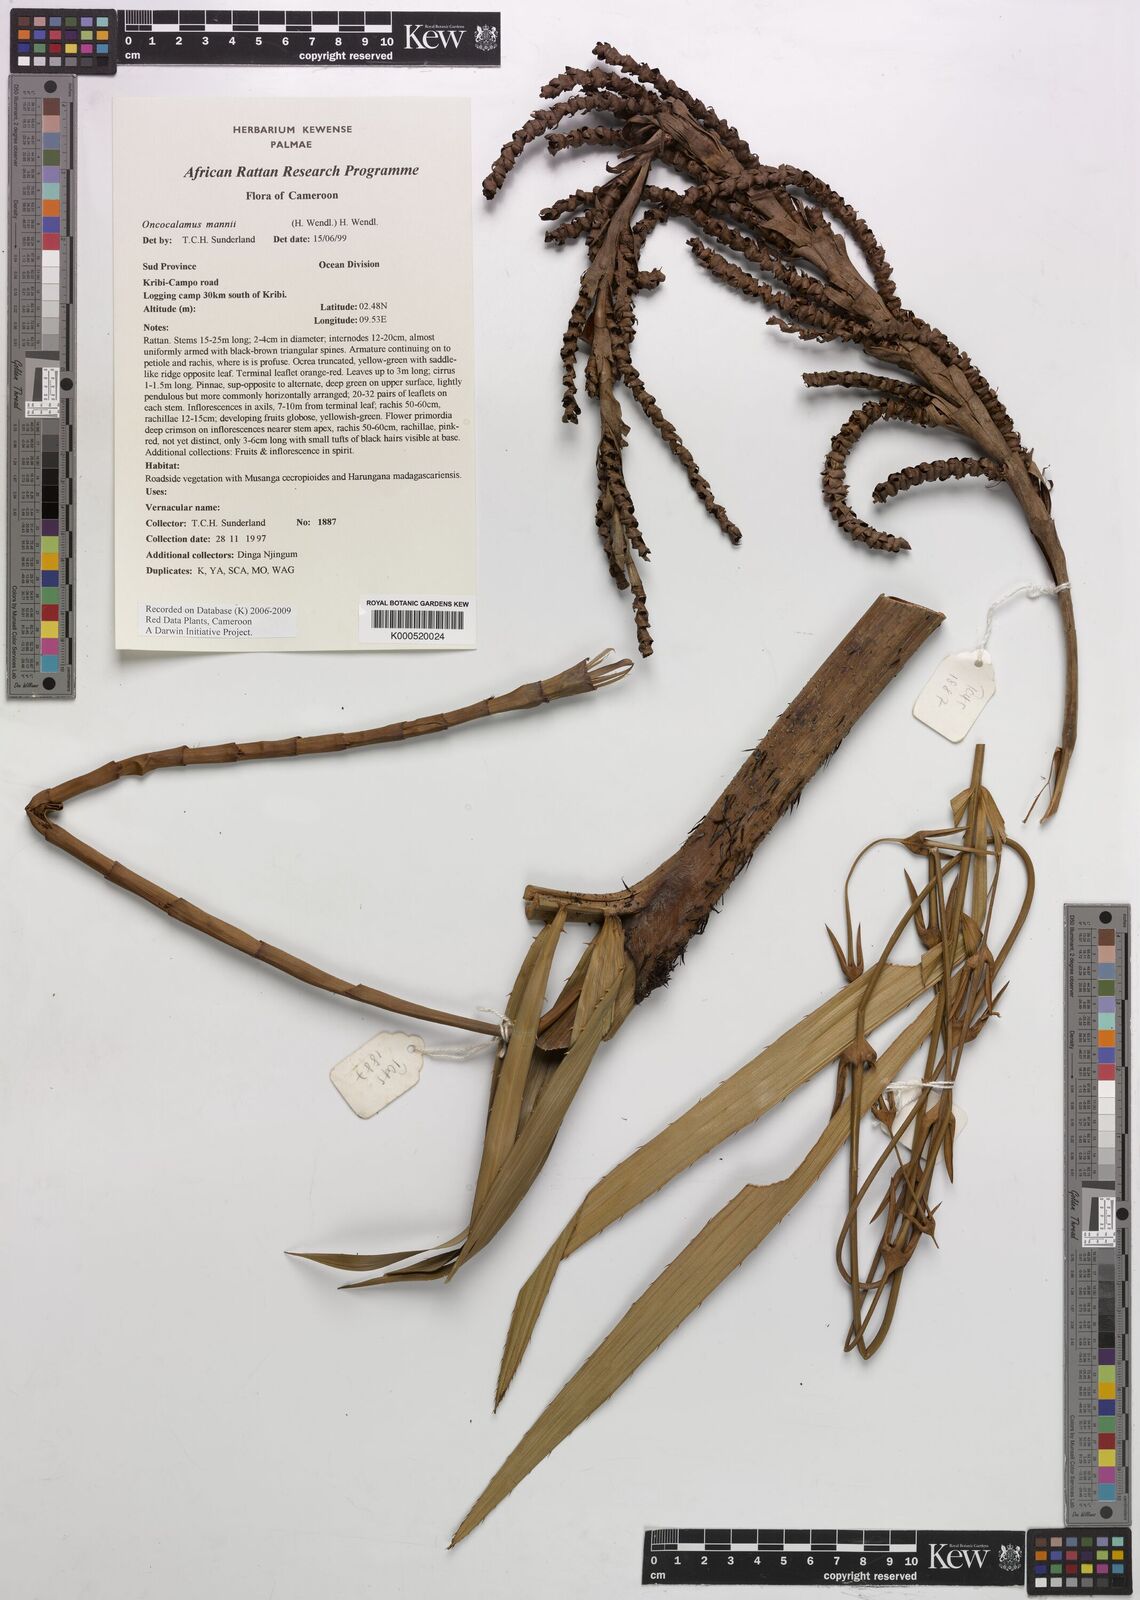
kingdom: Plantae
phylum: Tracheophyta
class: Liliopsida
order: Arecales
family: Arecaceae
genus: Oncocalamus
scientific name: Oncocalamus mannii
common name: Rattan
